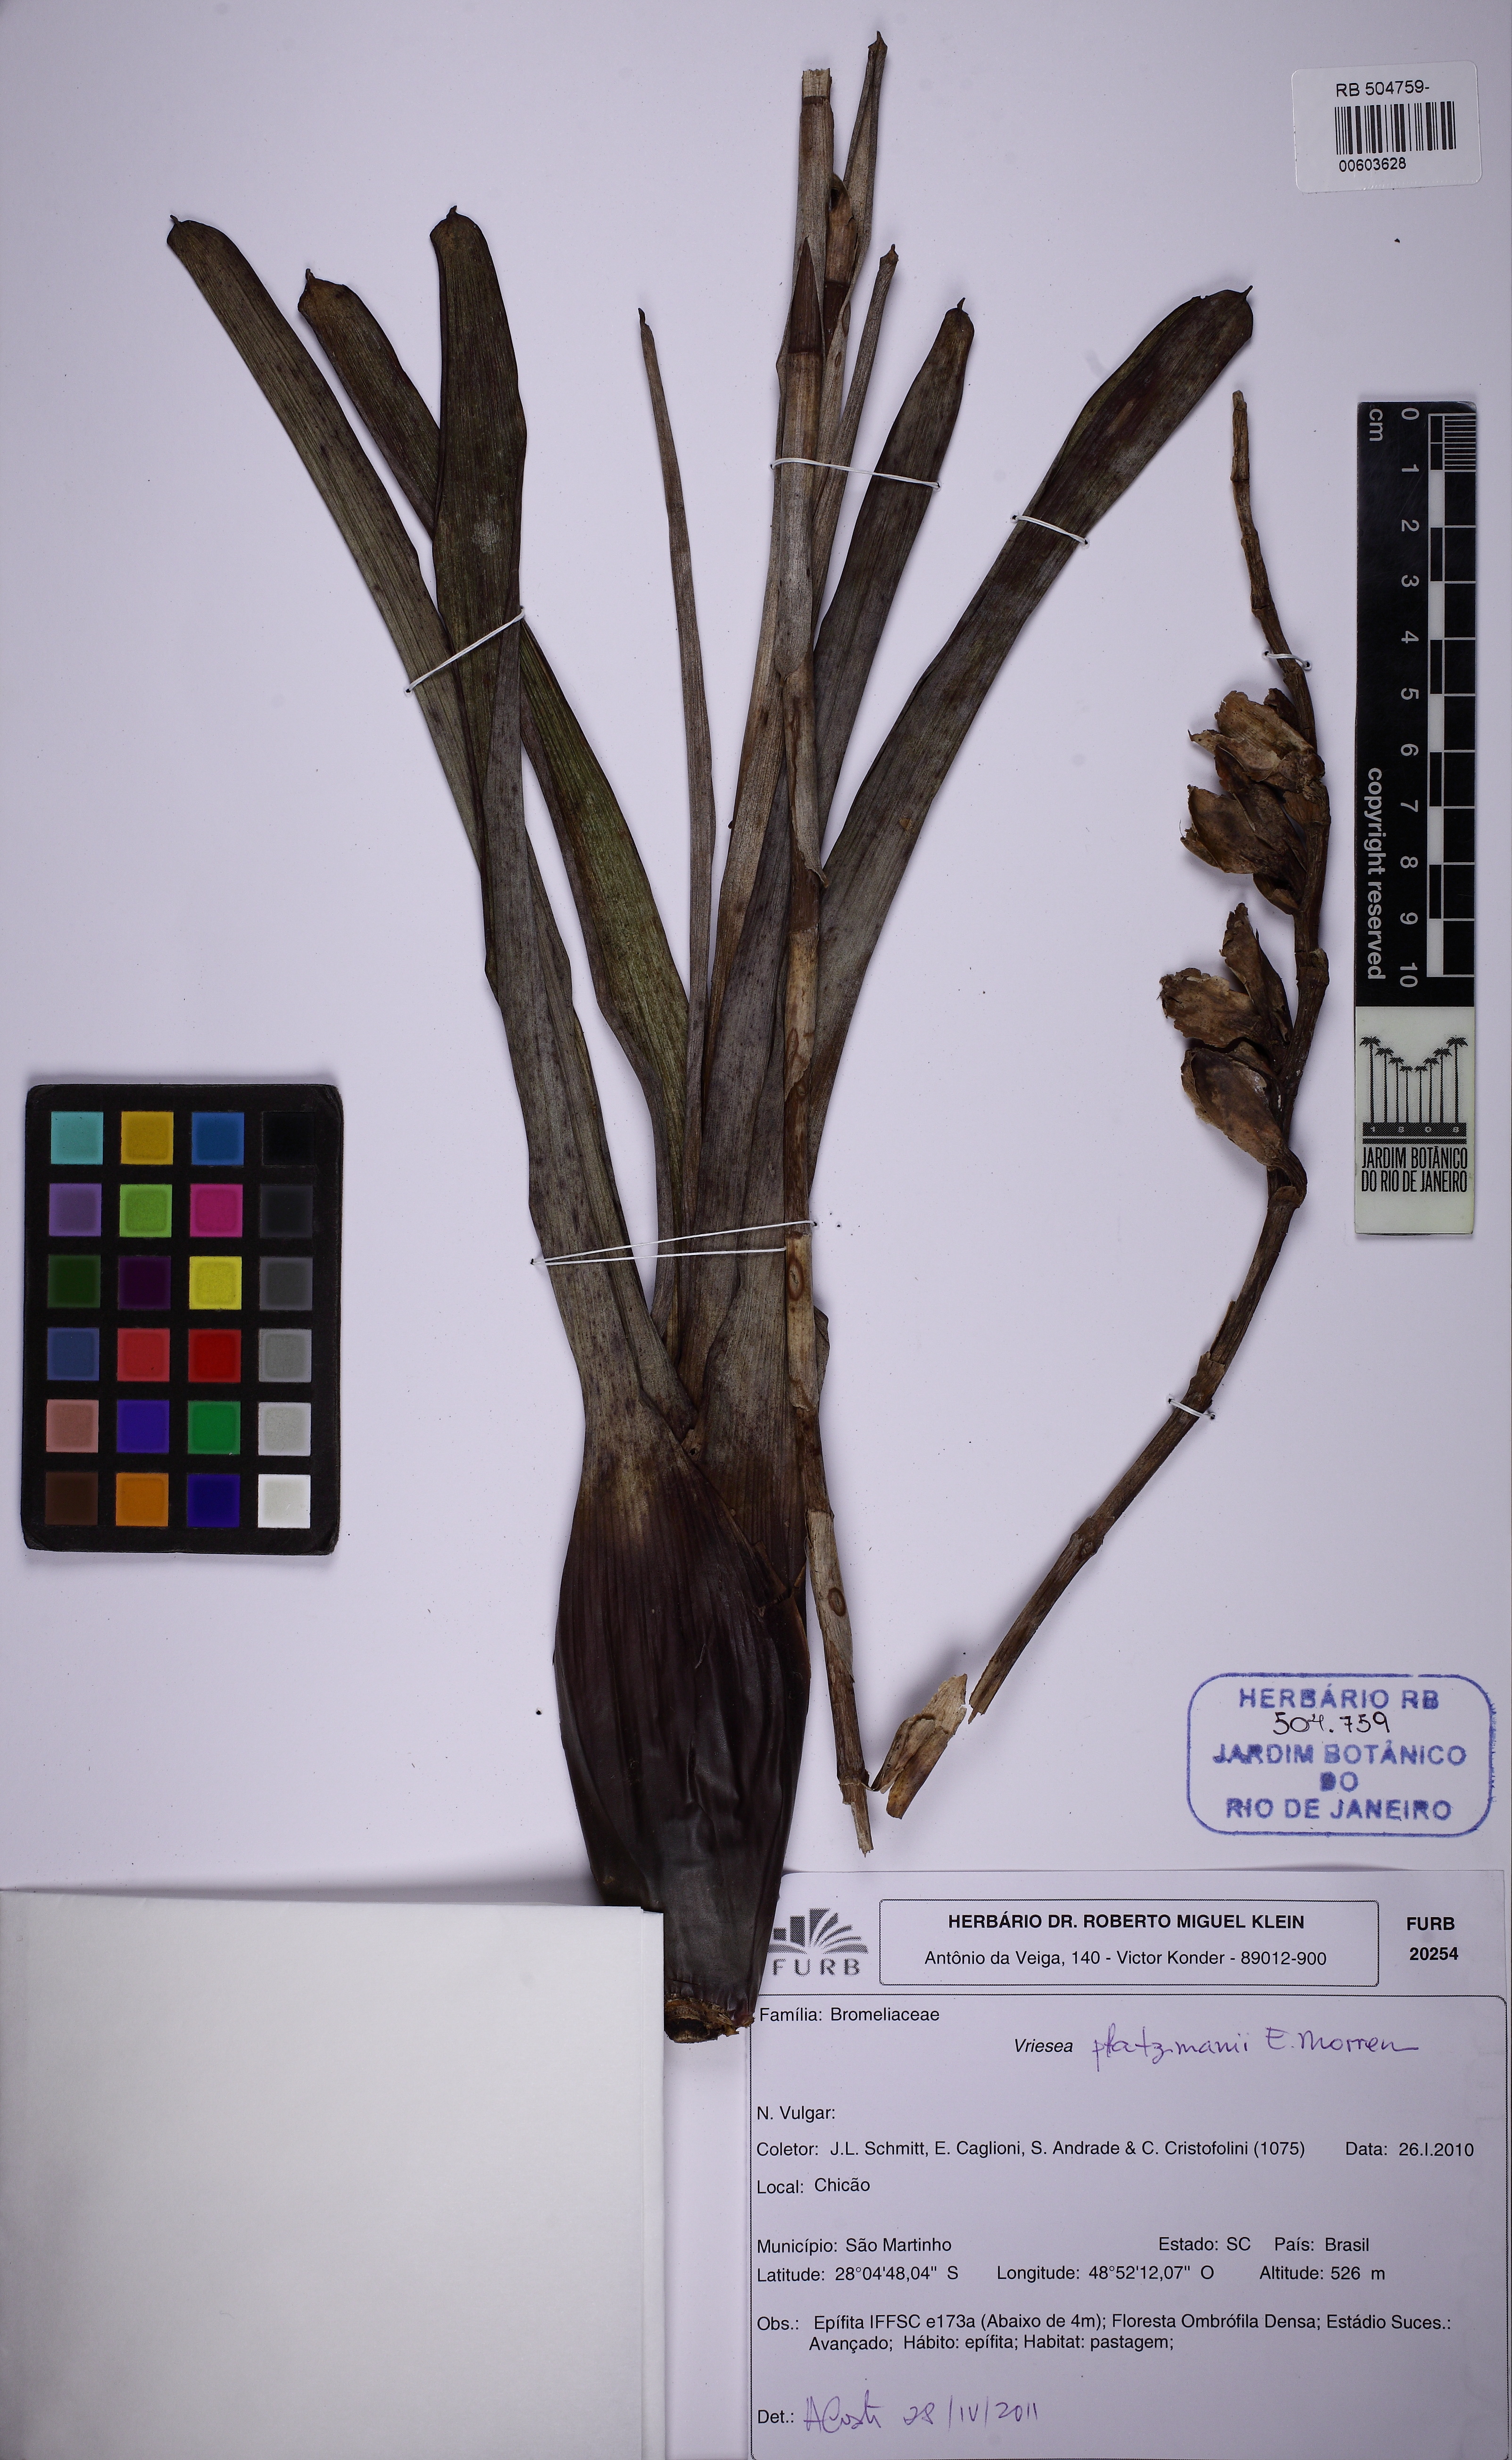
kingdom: Plantae
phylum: Tracheophyta
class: Liliopsida
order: Poales
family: Bromeliaceae
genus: Vriesea
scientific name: Vriesea platzmannii
